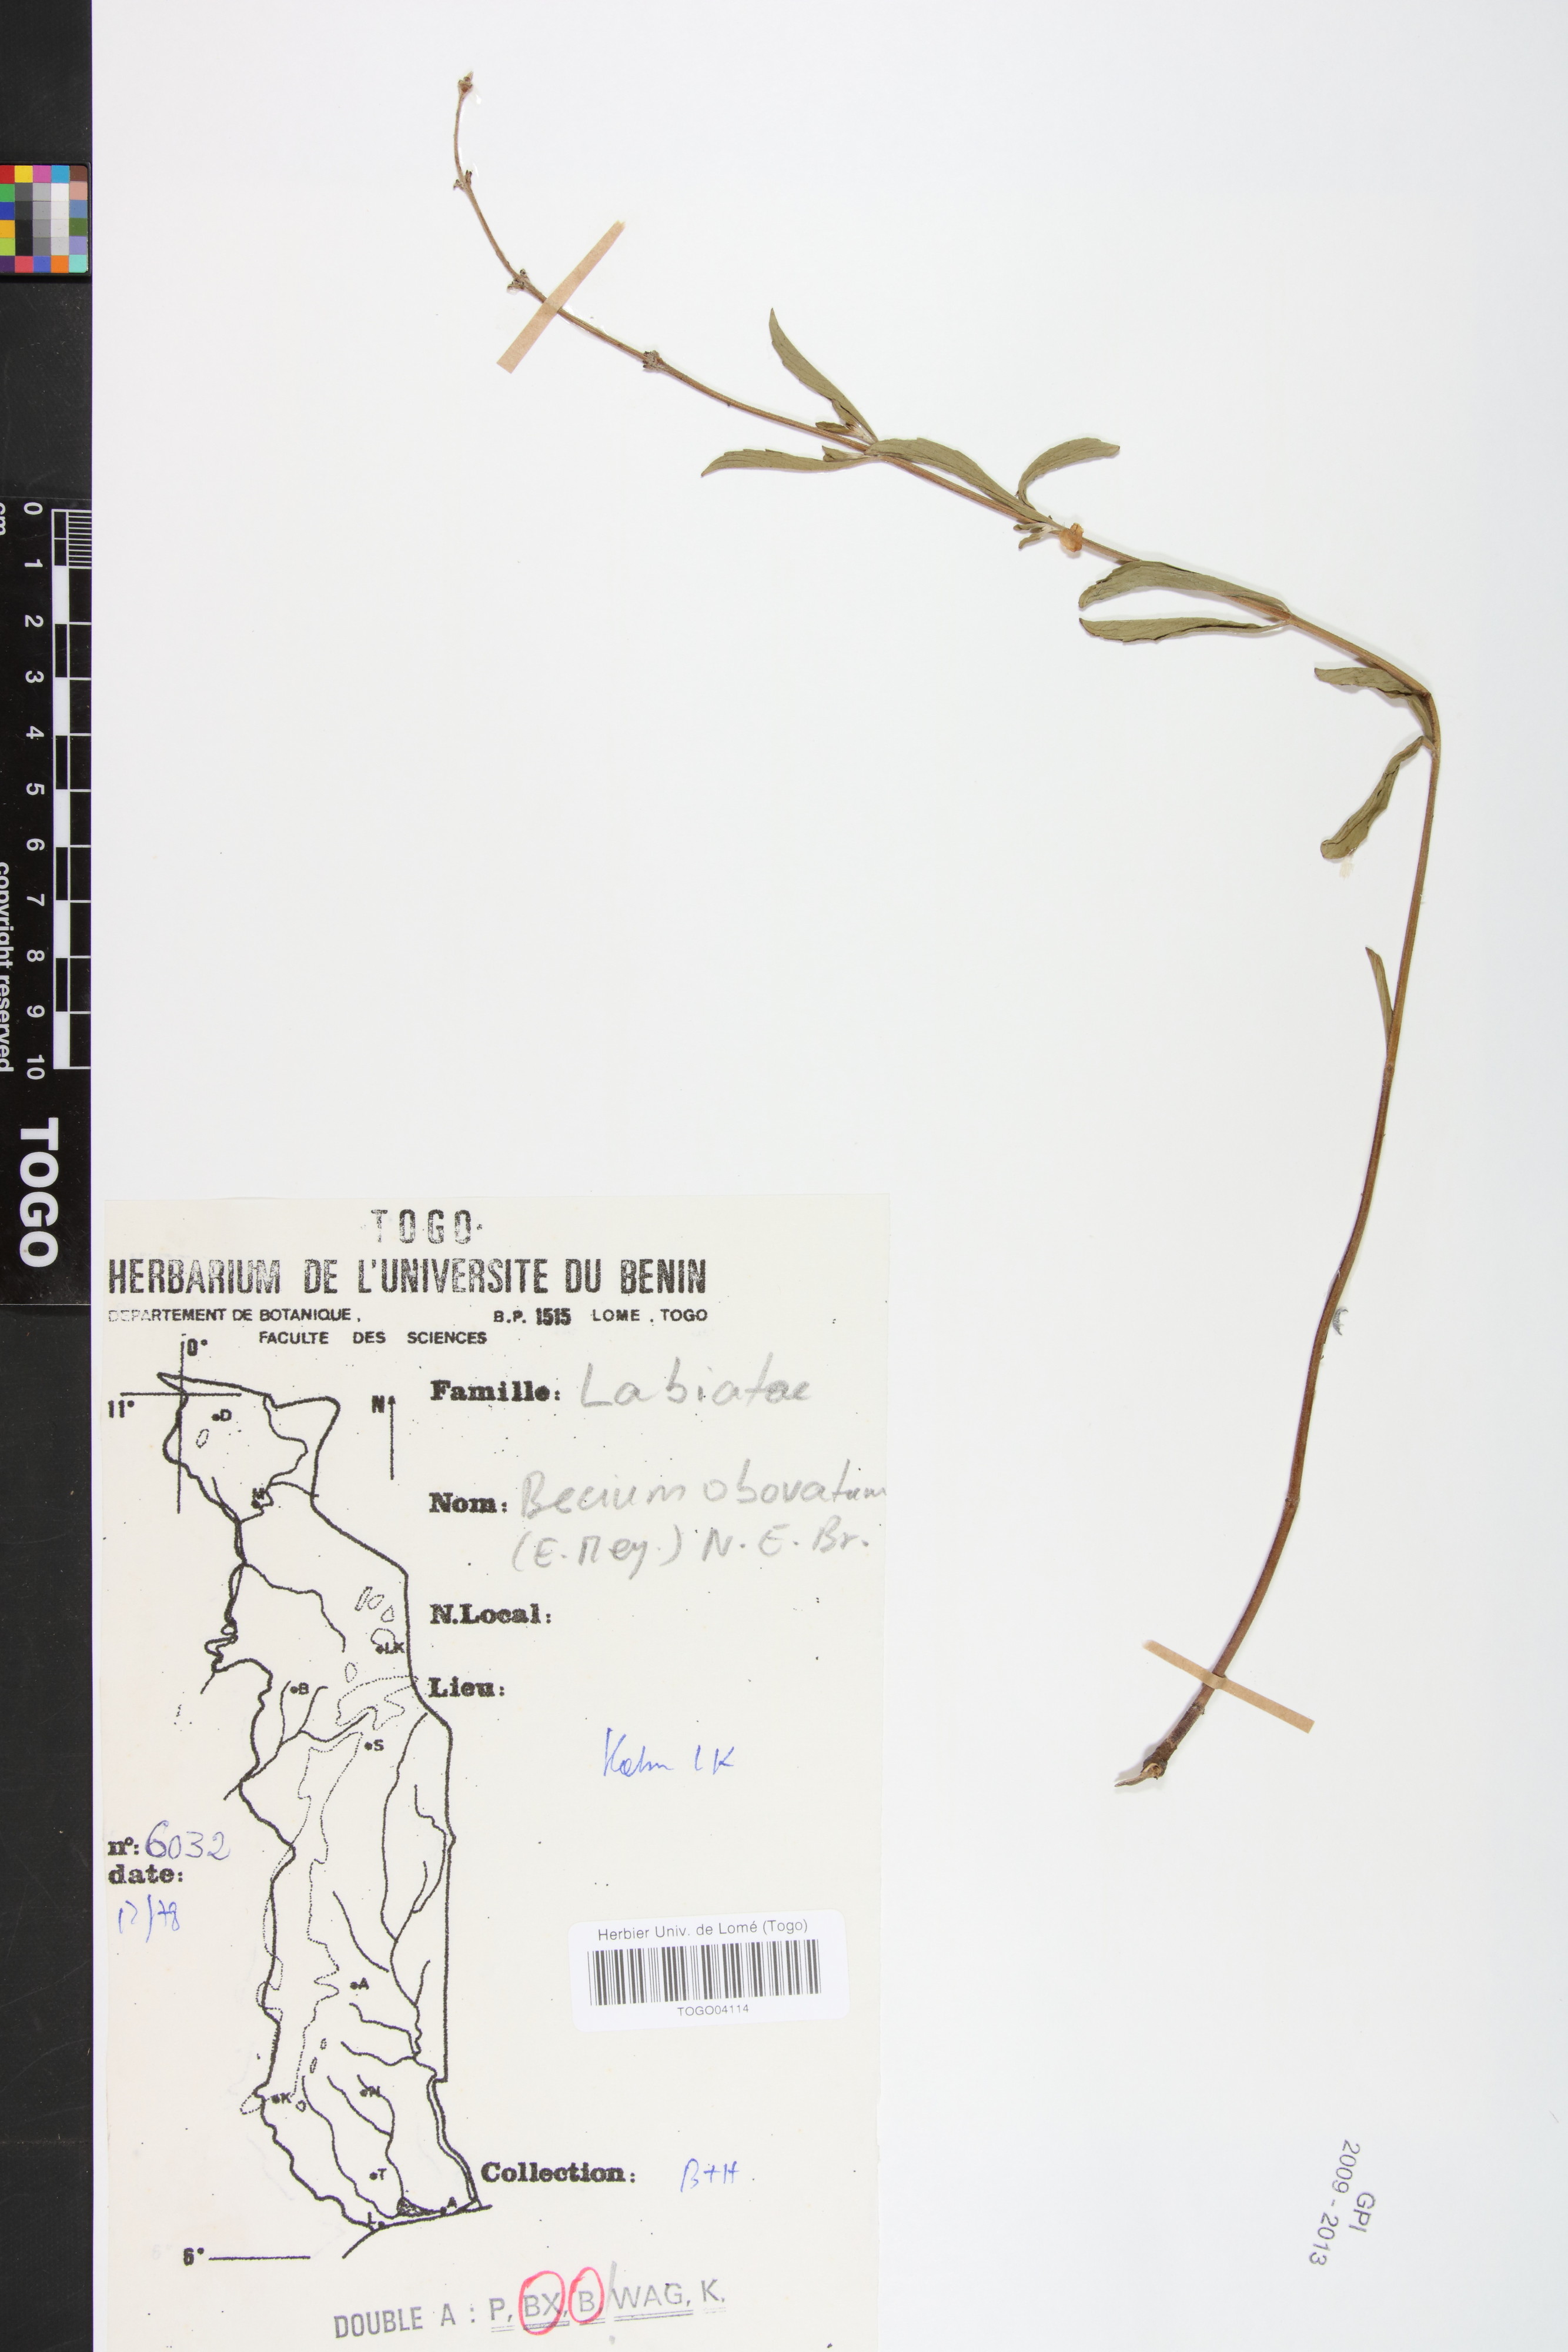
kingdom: Plantae
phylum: Tracheophyta
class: Magnoliopsida
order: Lamiales
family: Lamiaceae
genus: Ocimum
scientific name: Ocimum obovatum
